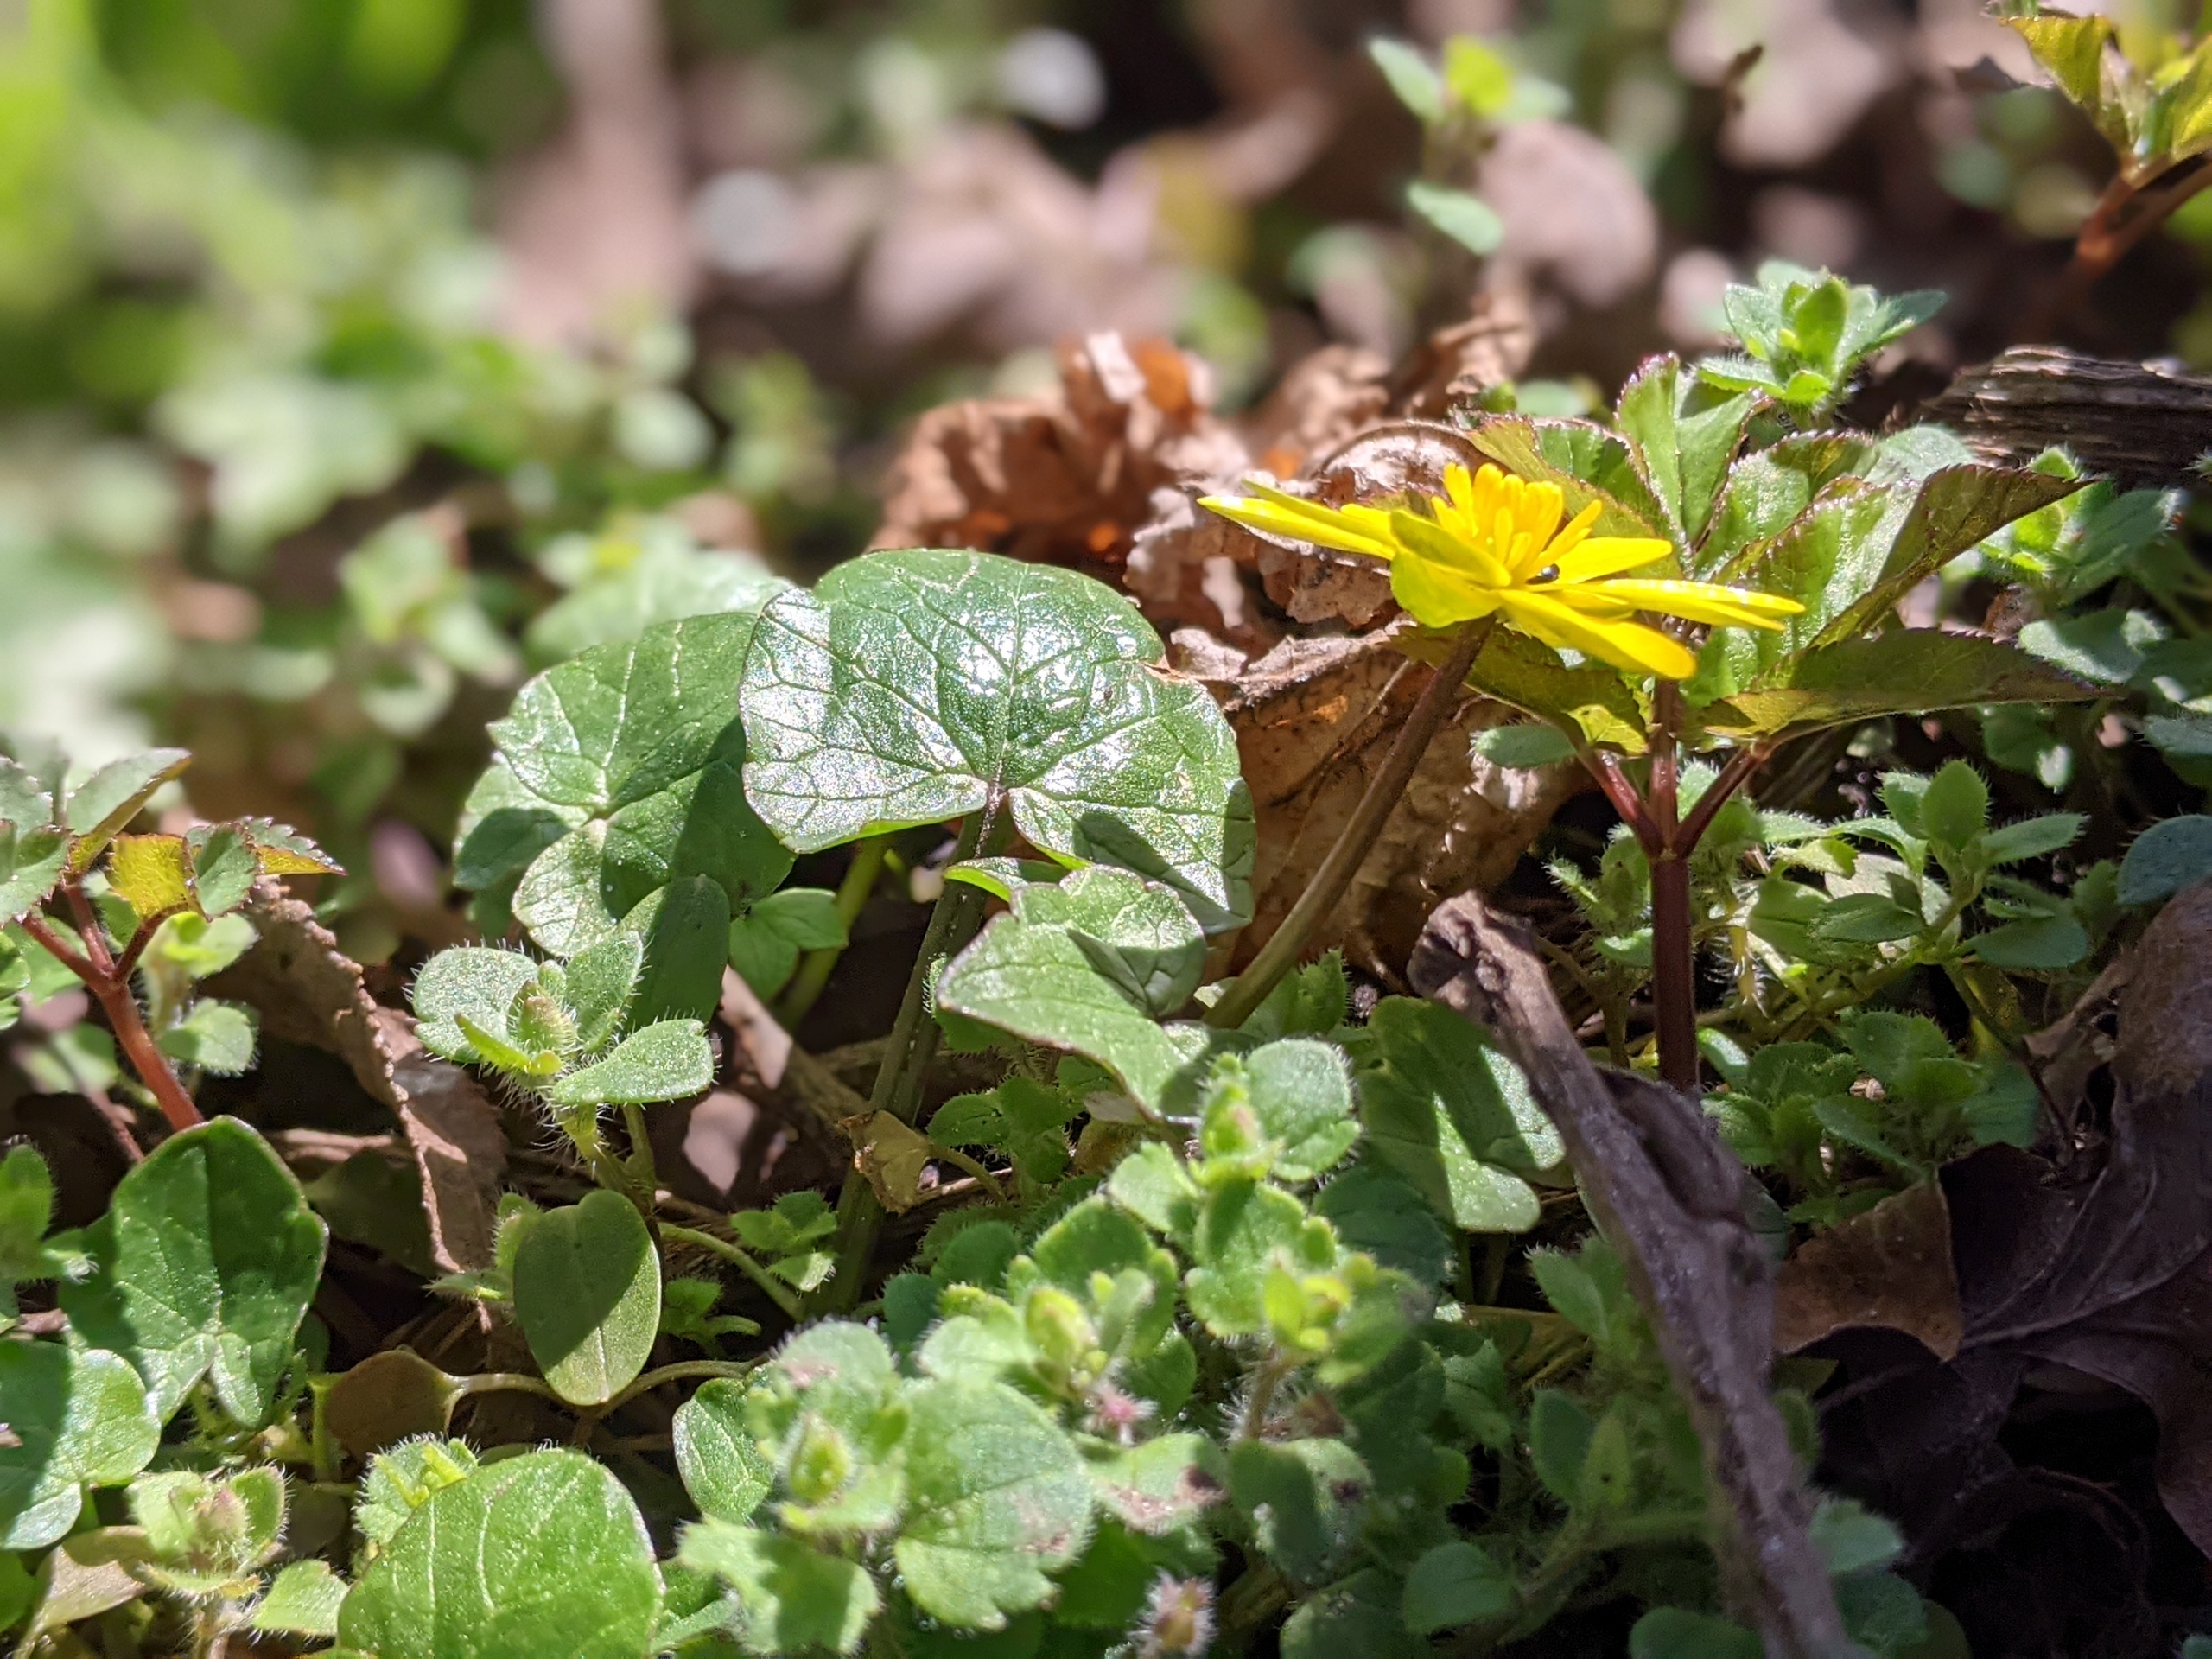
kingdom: Plantae
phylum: Tracheophyta
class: Magnoliopsida
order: Ranunculales
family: Ranunculaceae
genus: Ficaria
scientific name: Ficaria verna
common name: Vorterod
